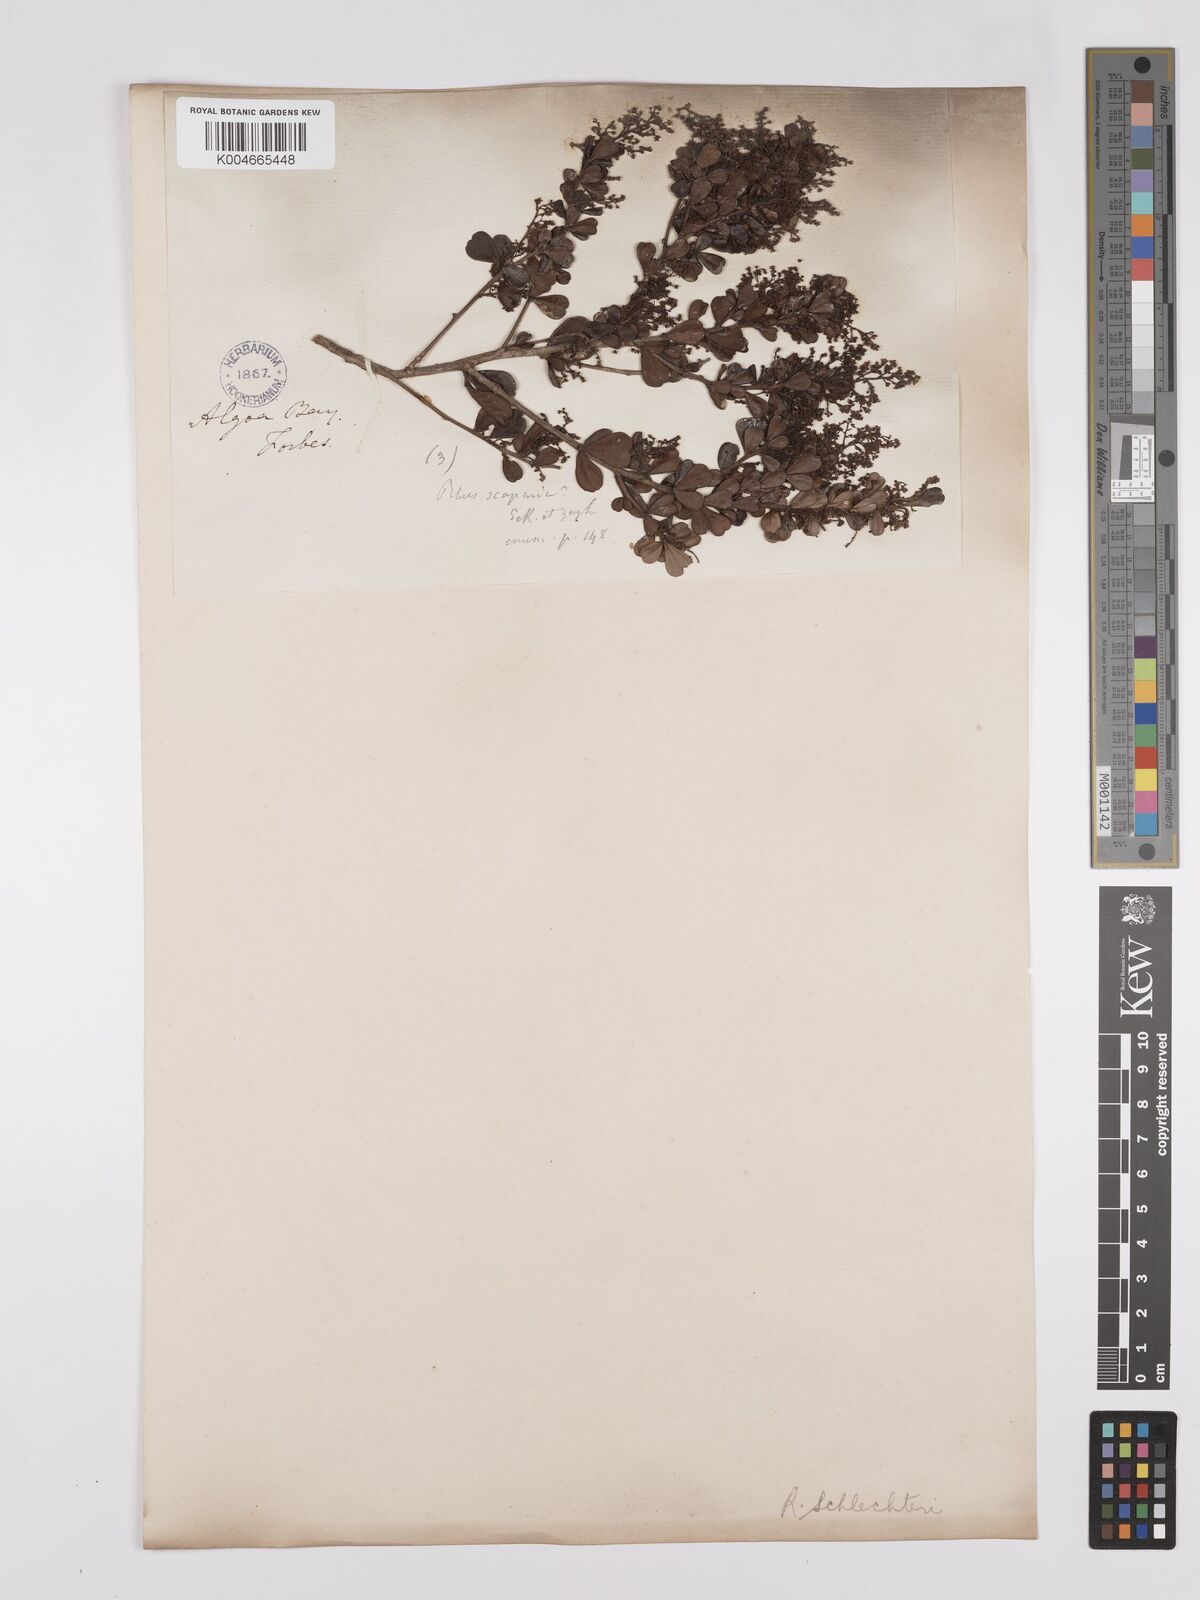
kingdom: Plantae
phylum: Tracheophyta
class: Magnoliopsida
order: Sapindales
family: Anacardiaceae
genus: Searsia
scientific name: Searsia lucida
